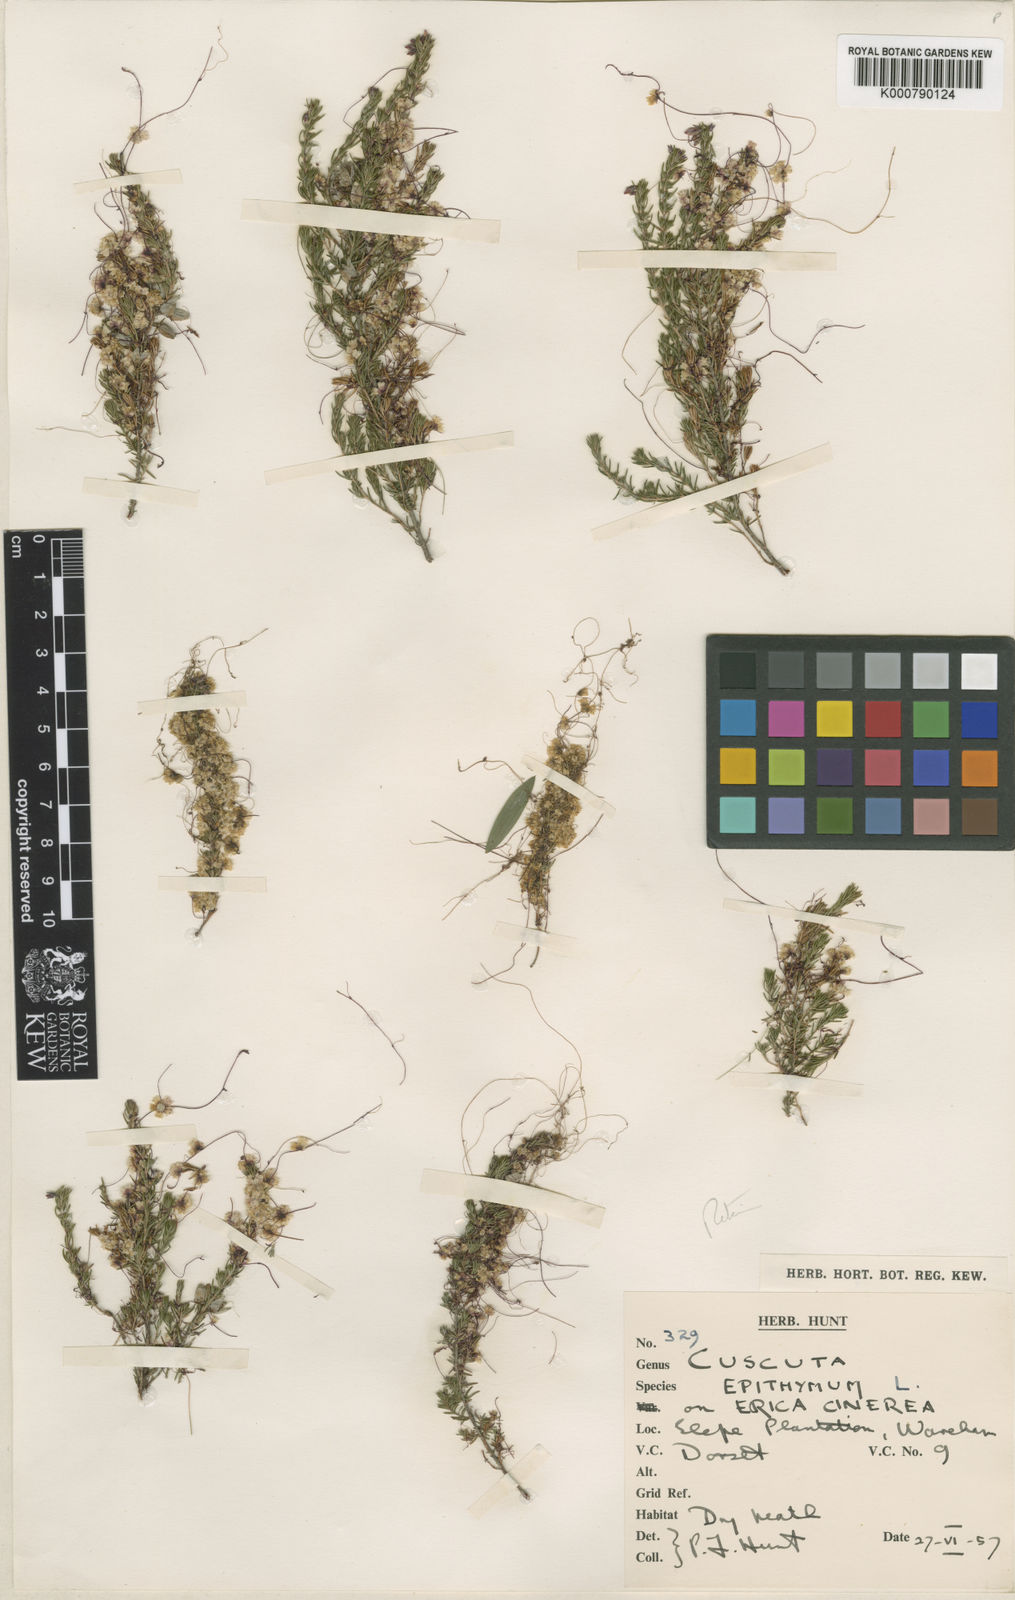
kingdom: Plantae
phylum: Tracheophyta
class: Magnoliopsida
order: Solanales
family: Convolvulaceae
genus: Cuscuta
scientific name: Cuscuta epithymum
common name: Clover dodder
